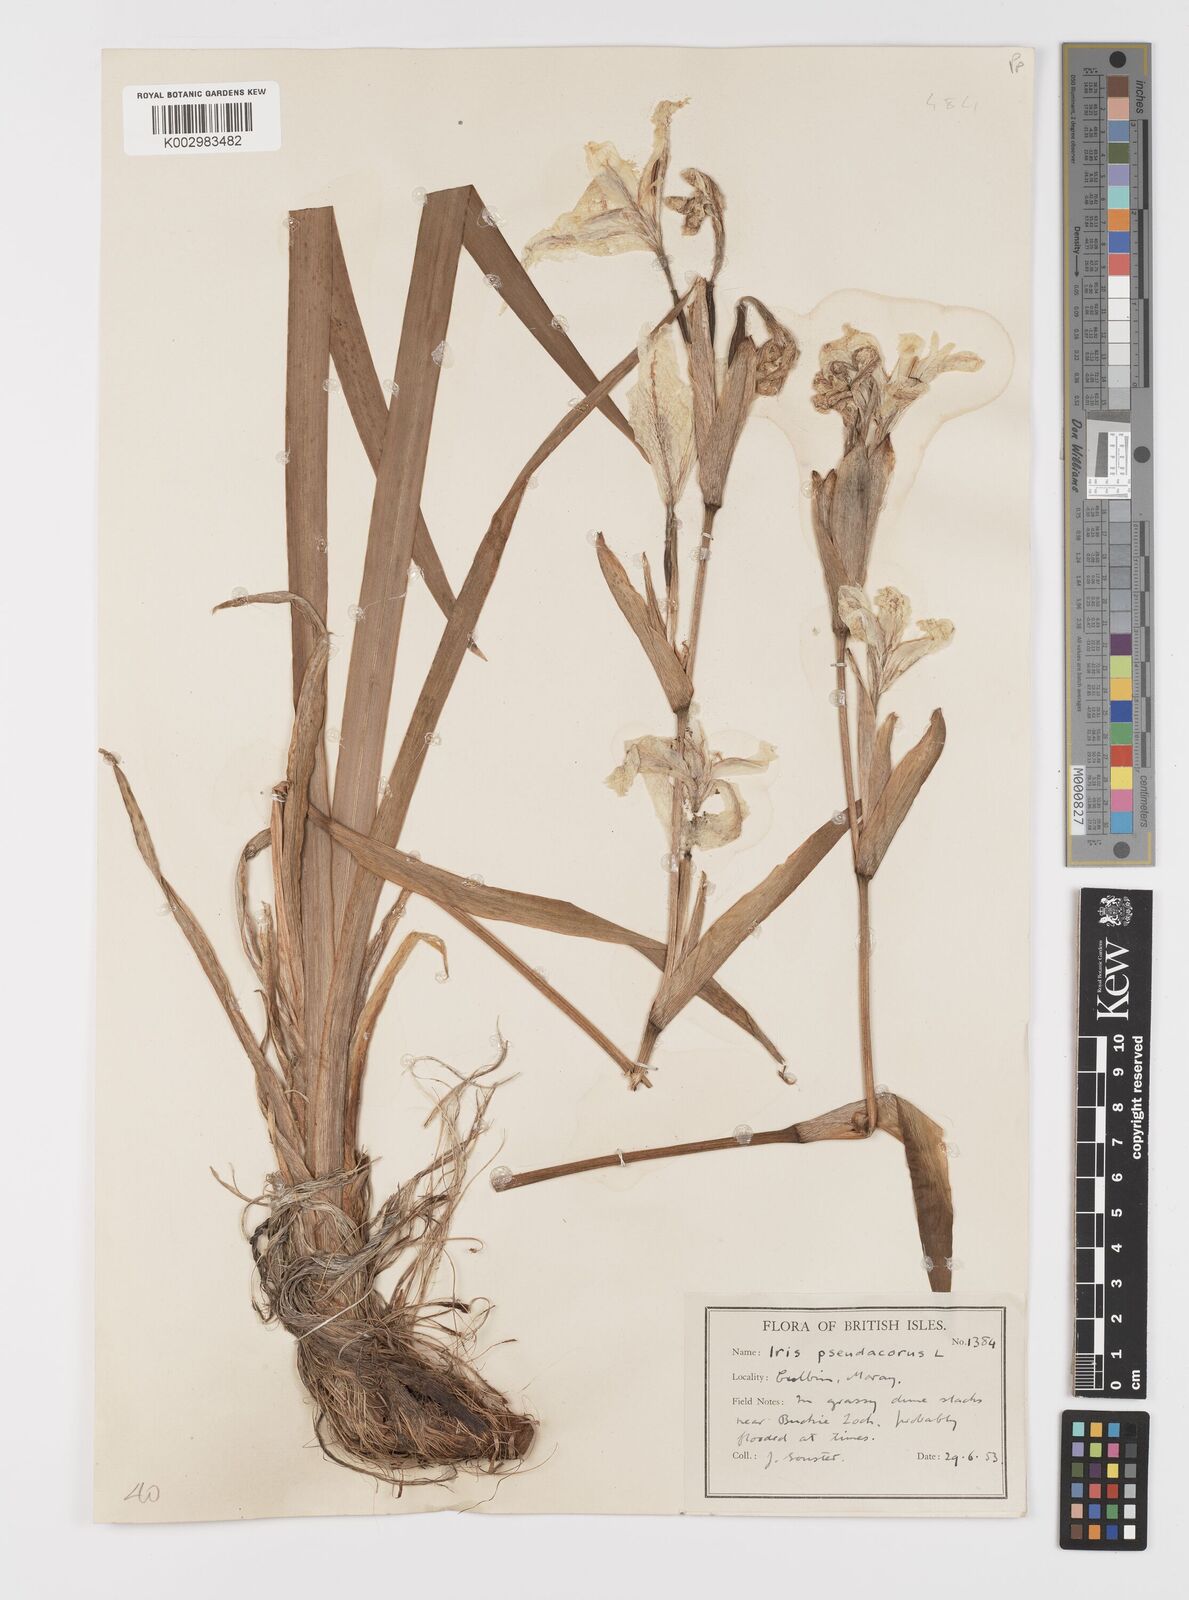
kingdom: Plantae
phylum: Tracheophyta
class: Liliopsida
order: Asparagales
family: Iridaceae
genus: Iris
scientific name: Iris pseudacorus
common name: Yellow flag
